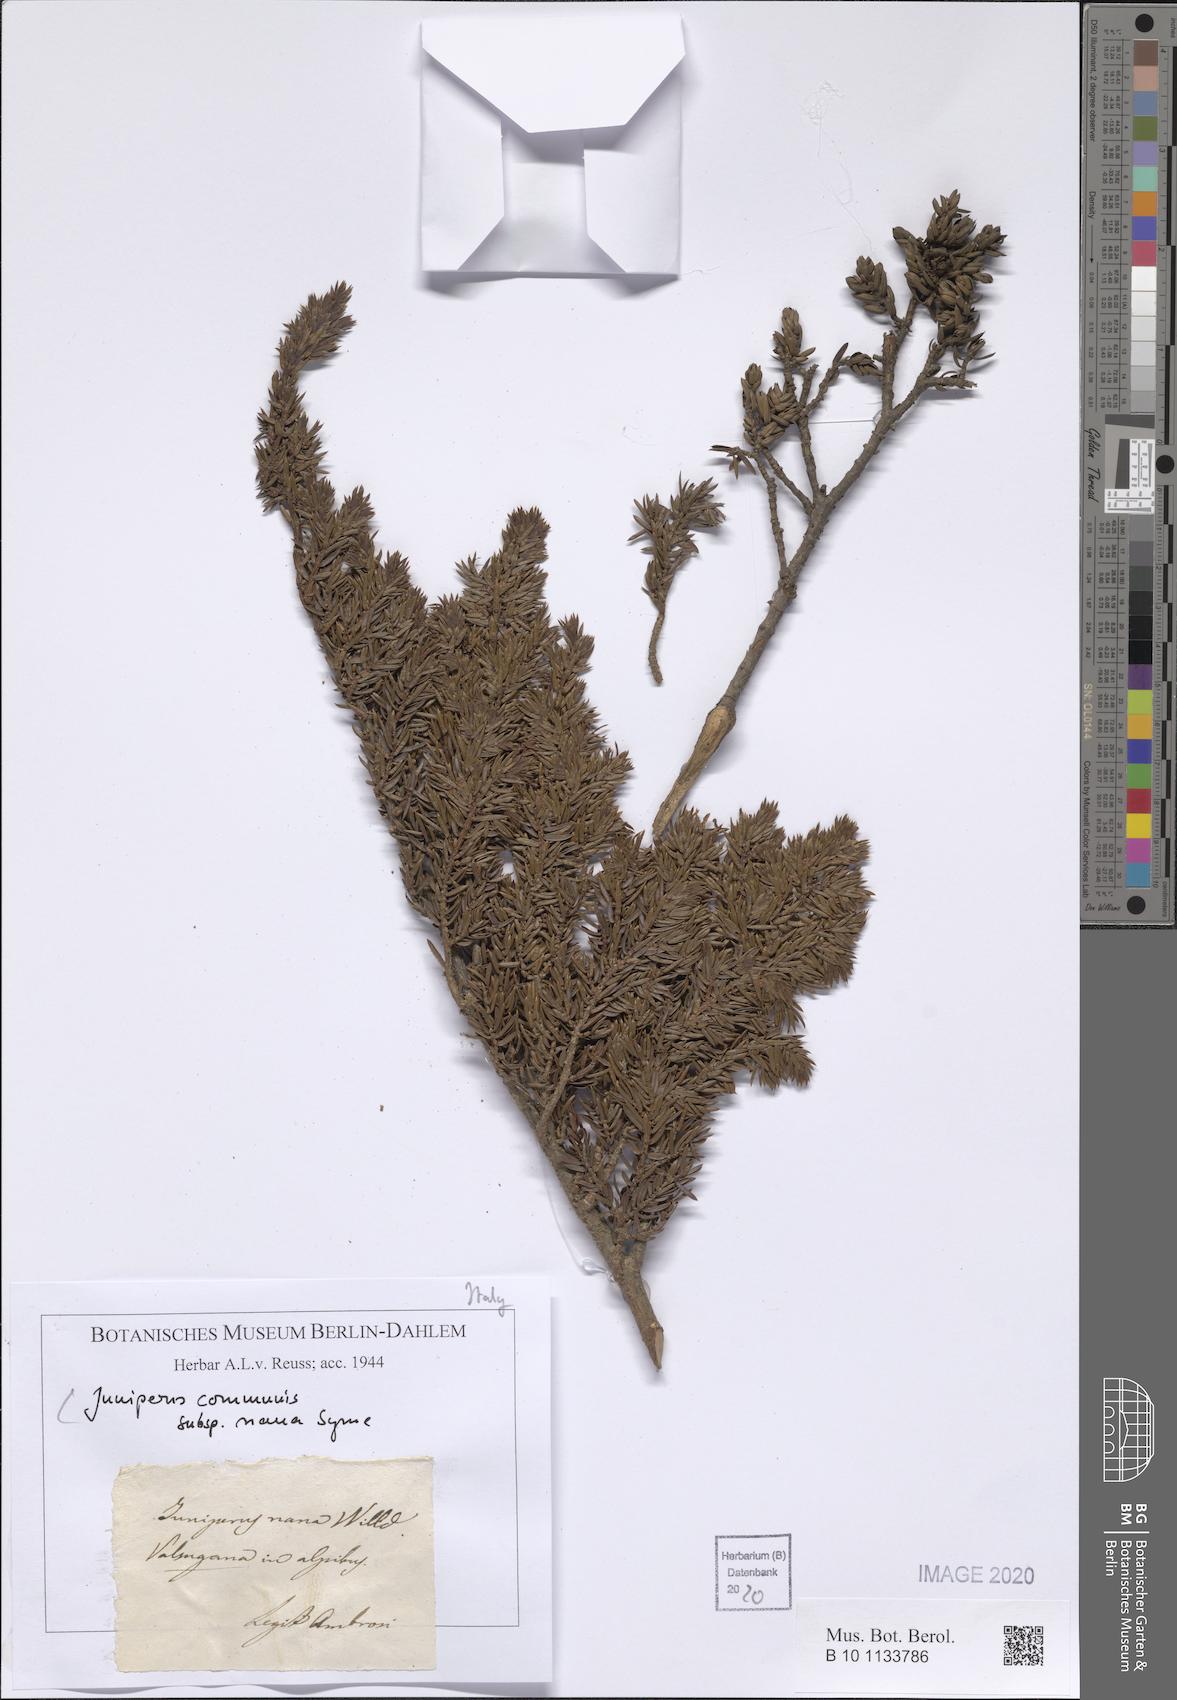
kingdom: Plantae
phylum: Tracheophyta
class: Pinopsida
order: Pinales
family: Cupressaceae
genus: Juniperus
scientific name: Juniperus communis
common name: Common juniper
